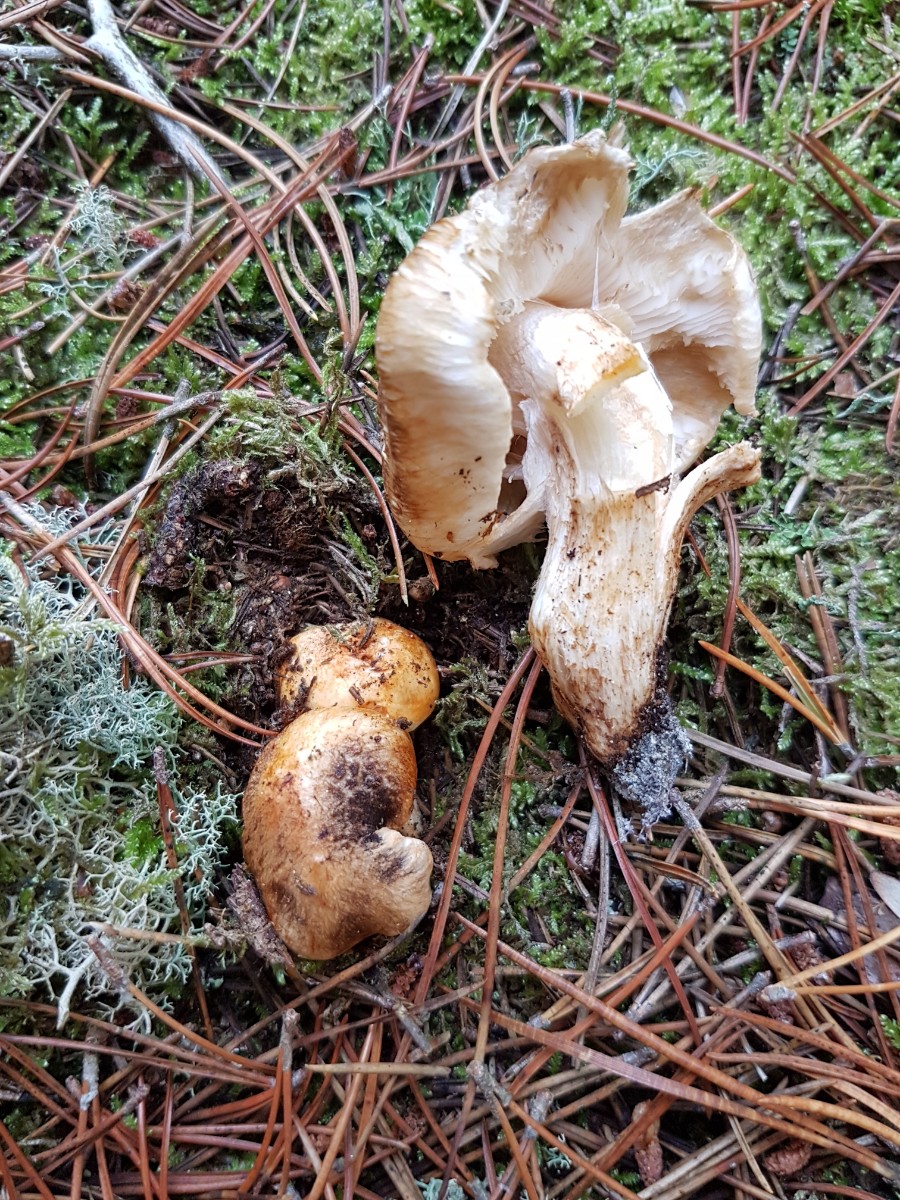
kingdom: Fungi
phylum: Basidiomycota
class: Agaricomycetes
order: Agaricales
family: Tricholomataceae
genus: Tricholoma
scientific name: Tricholoma focale
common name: halsbånd-ridderhat
